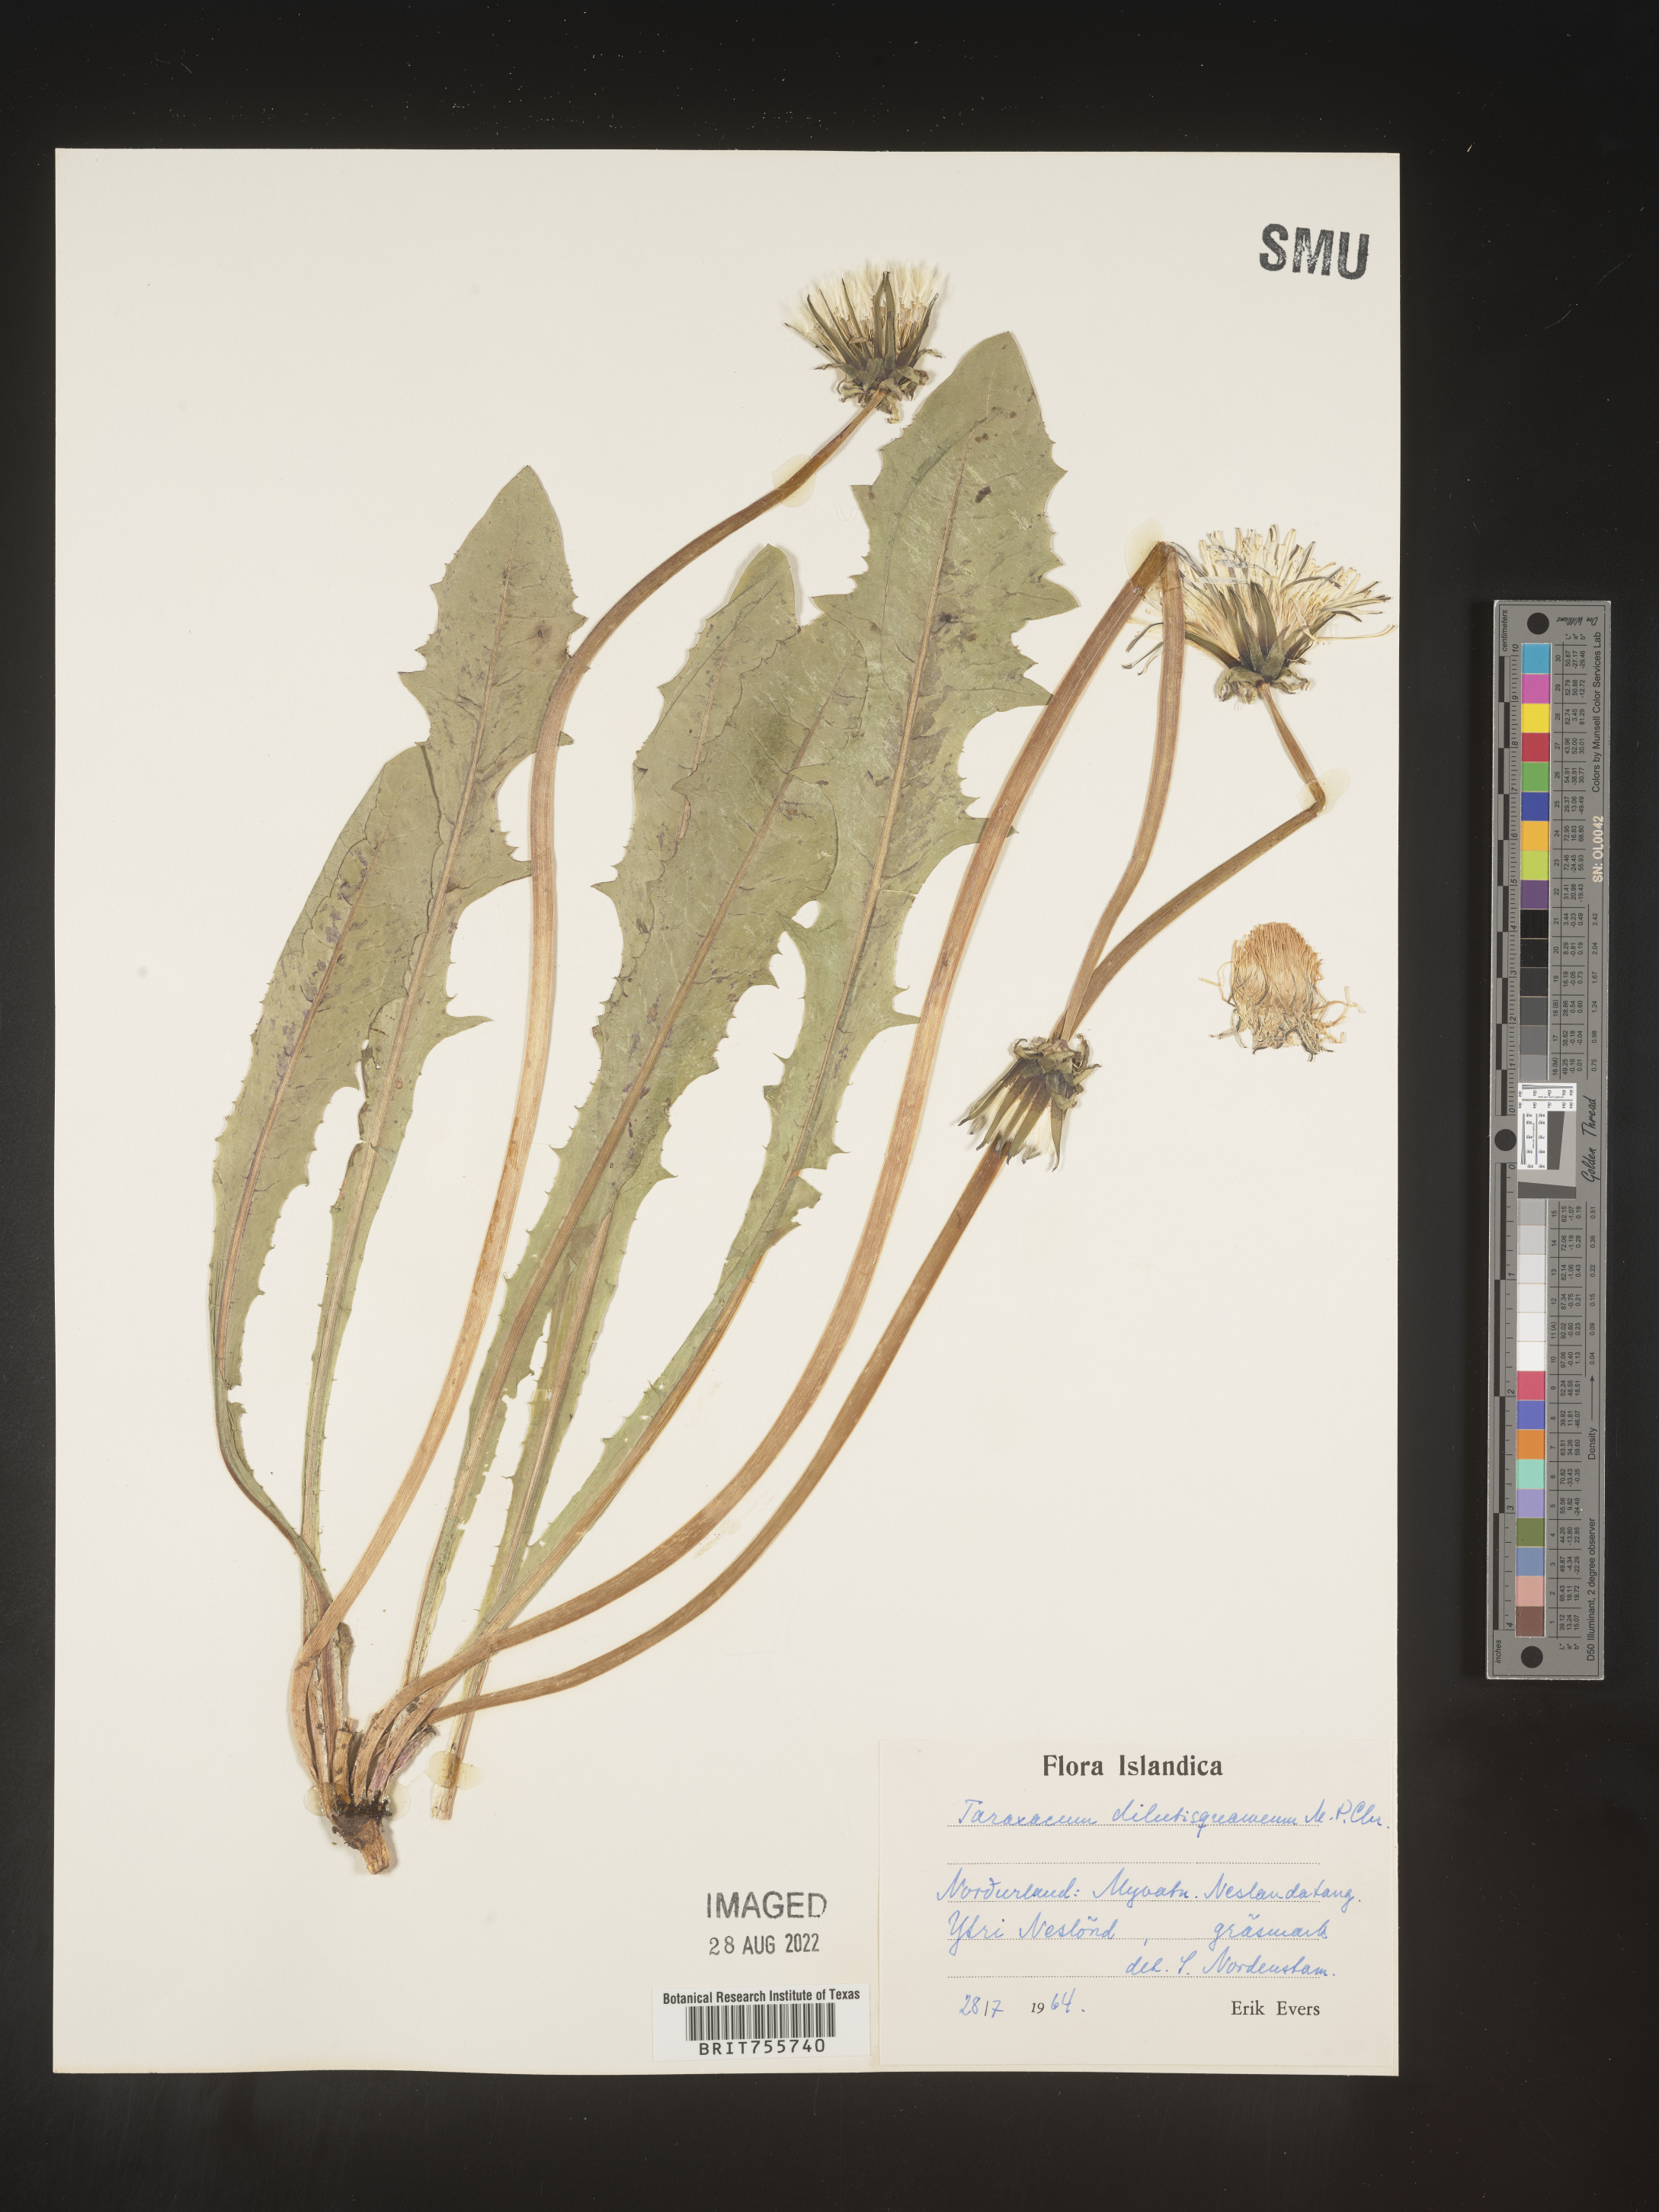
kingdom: Plantae
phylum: Tracheophyta
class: Magnoliopsida
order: Asterales
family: Asteraceae
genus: Taraxacum
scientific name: Taraxacum
